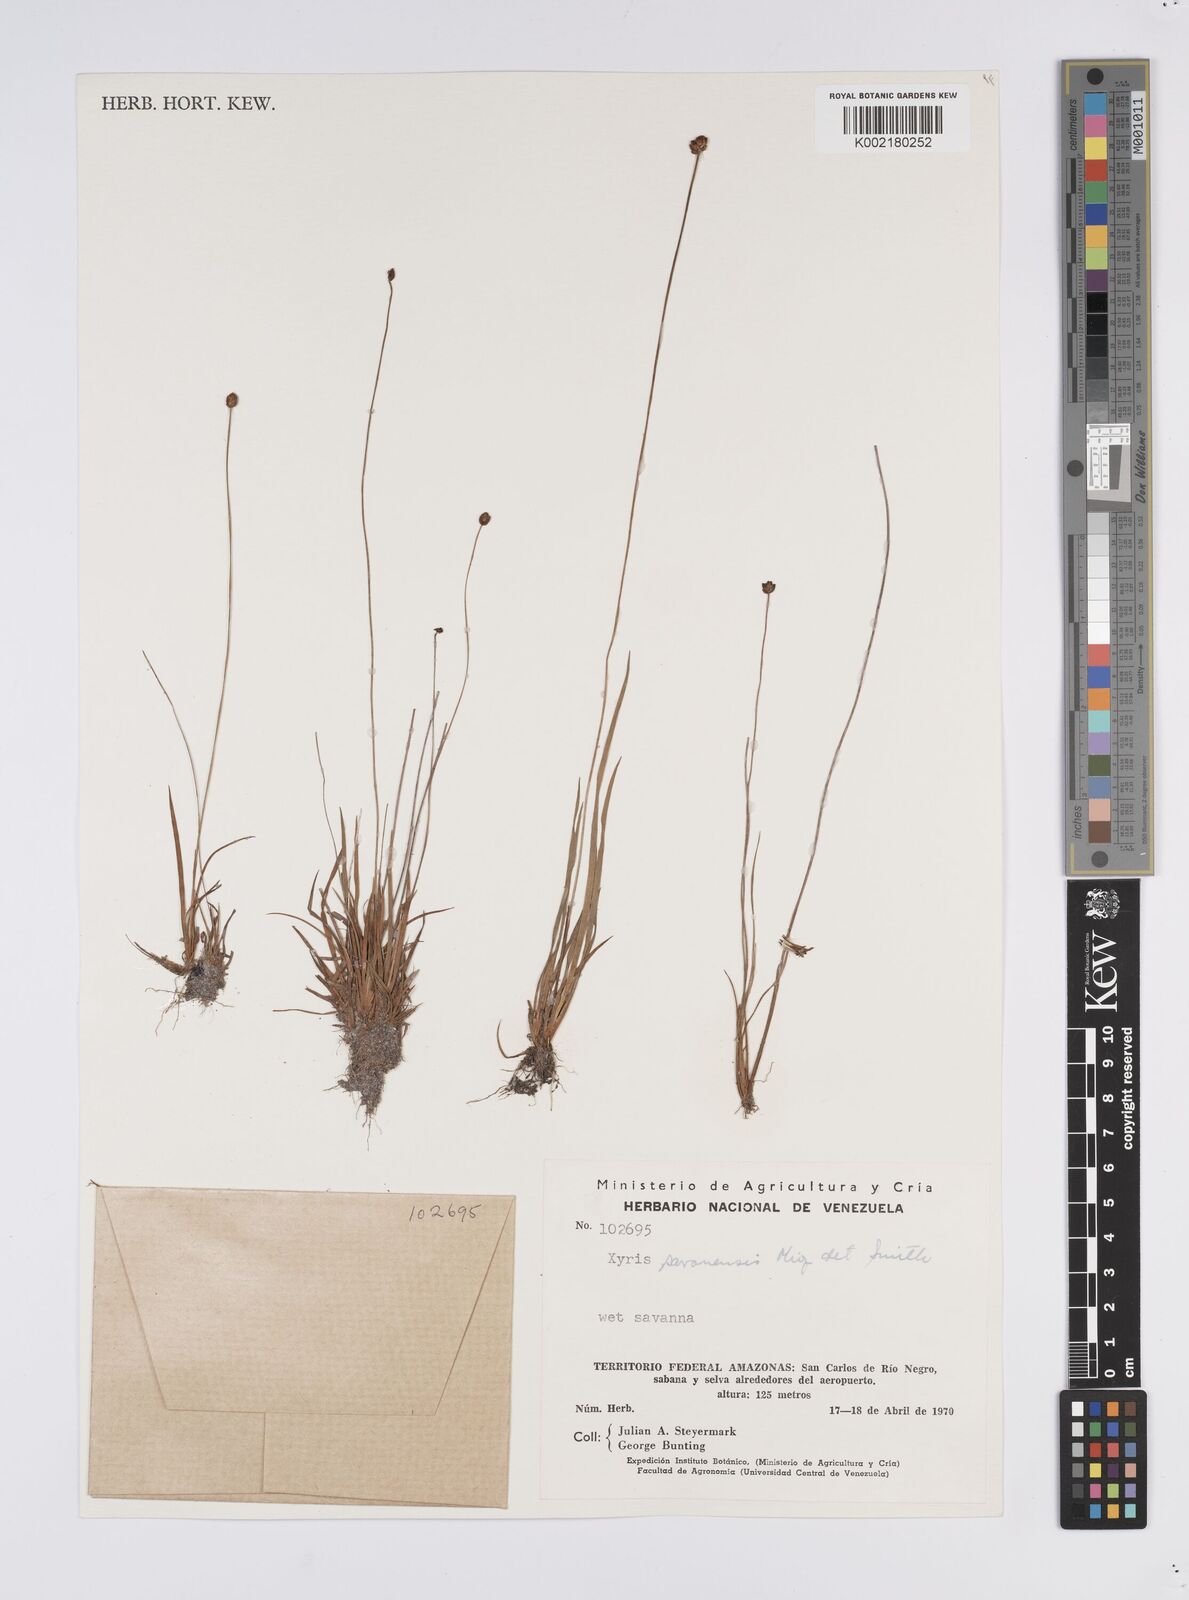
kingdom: Plantae
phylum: Tracheophyta
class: Liliopsida
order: Poales
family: Xyridaceae
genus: Xyris
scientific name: Xyris savanensis
